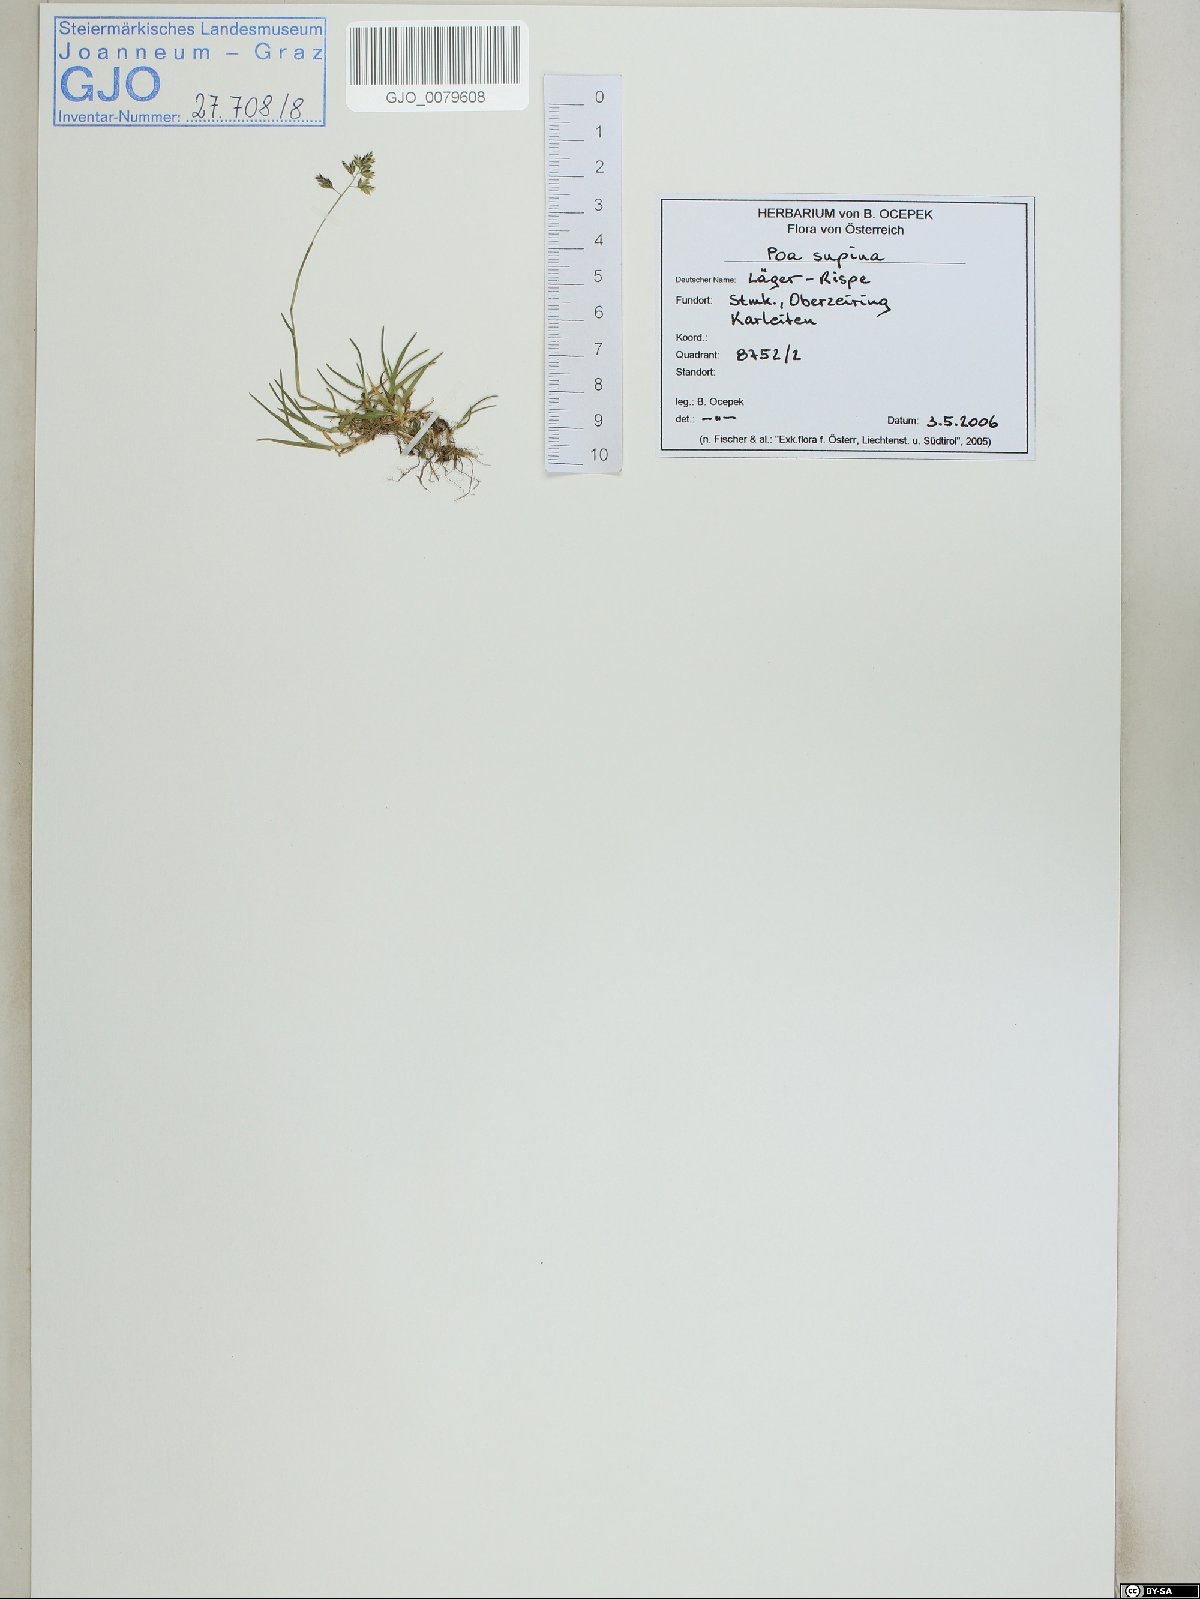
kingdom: Plantae
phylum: Tracheophyta
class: Liliopsida
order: Poales
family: Poaceae
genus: Poa
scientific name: Poa supina
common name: Supina bluegrass
